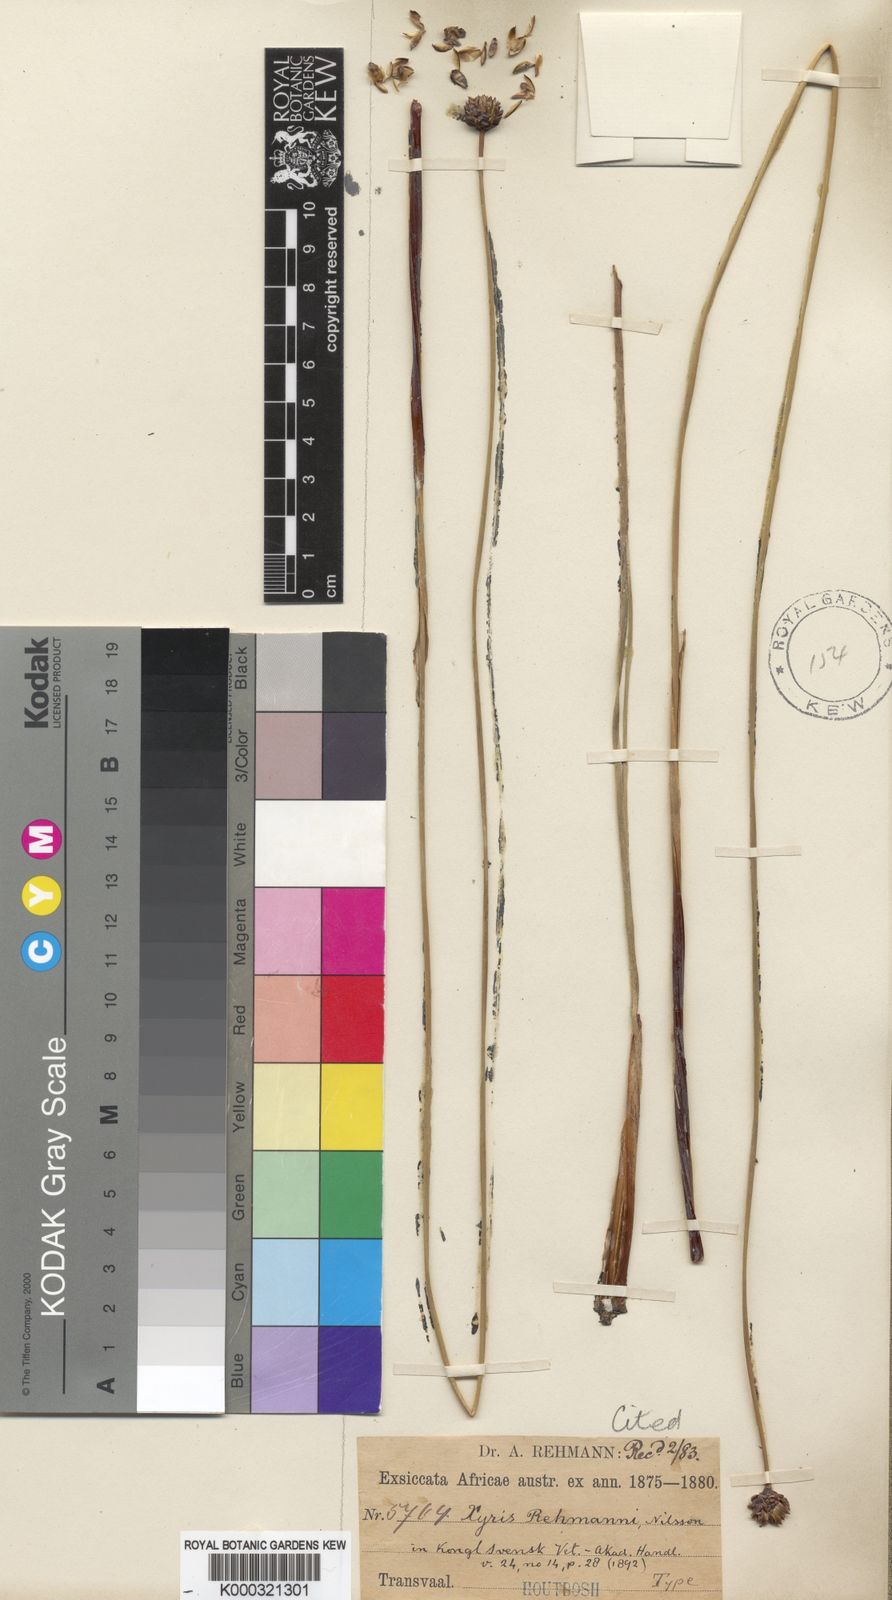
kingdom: Plantae
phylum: Tracheophyta
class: Liliopsida
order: Poales
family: Xyridaceae
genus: Xyris
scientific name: Xyris rehmannii
